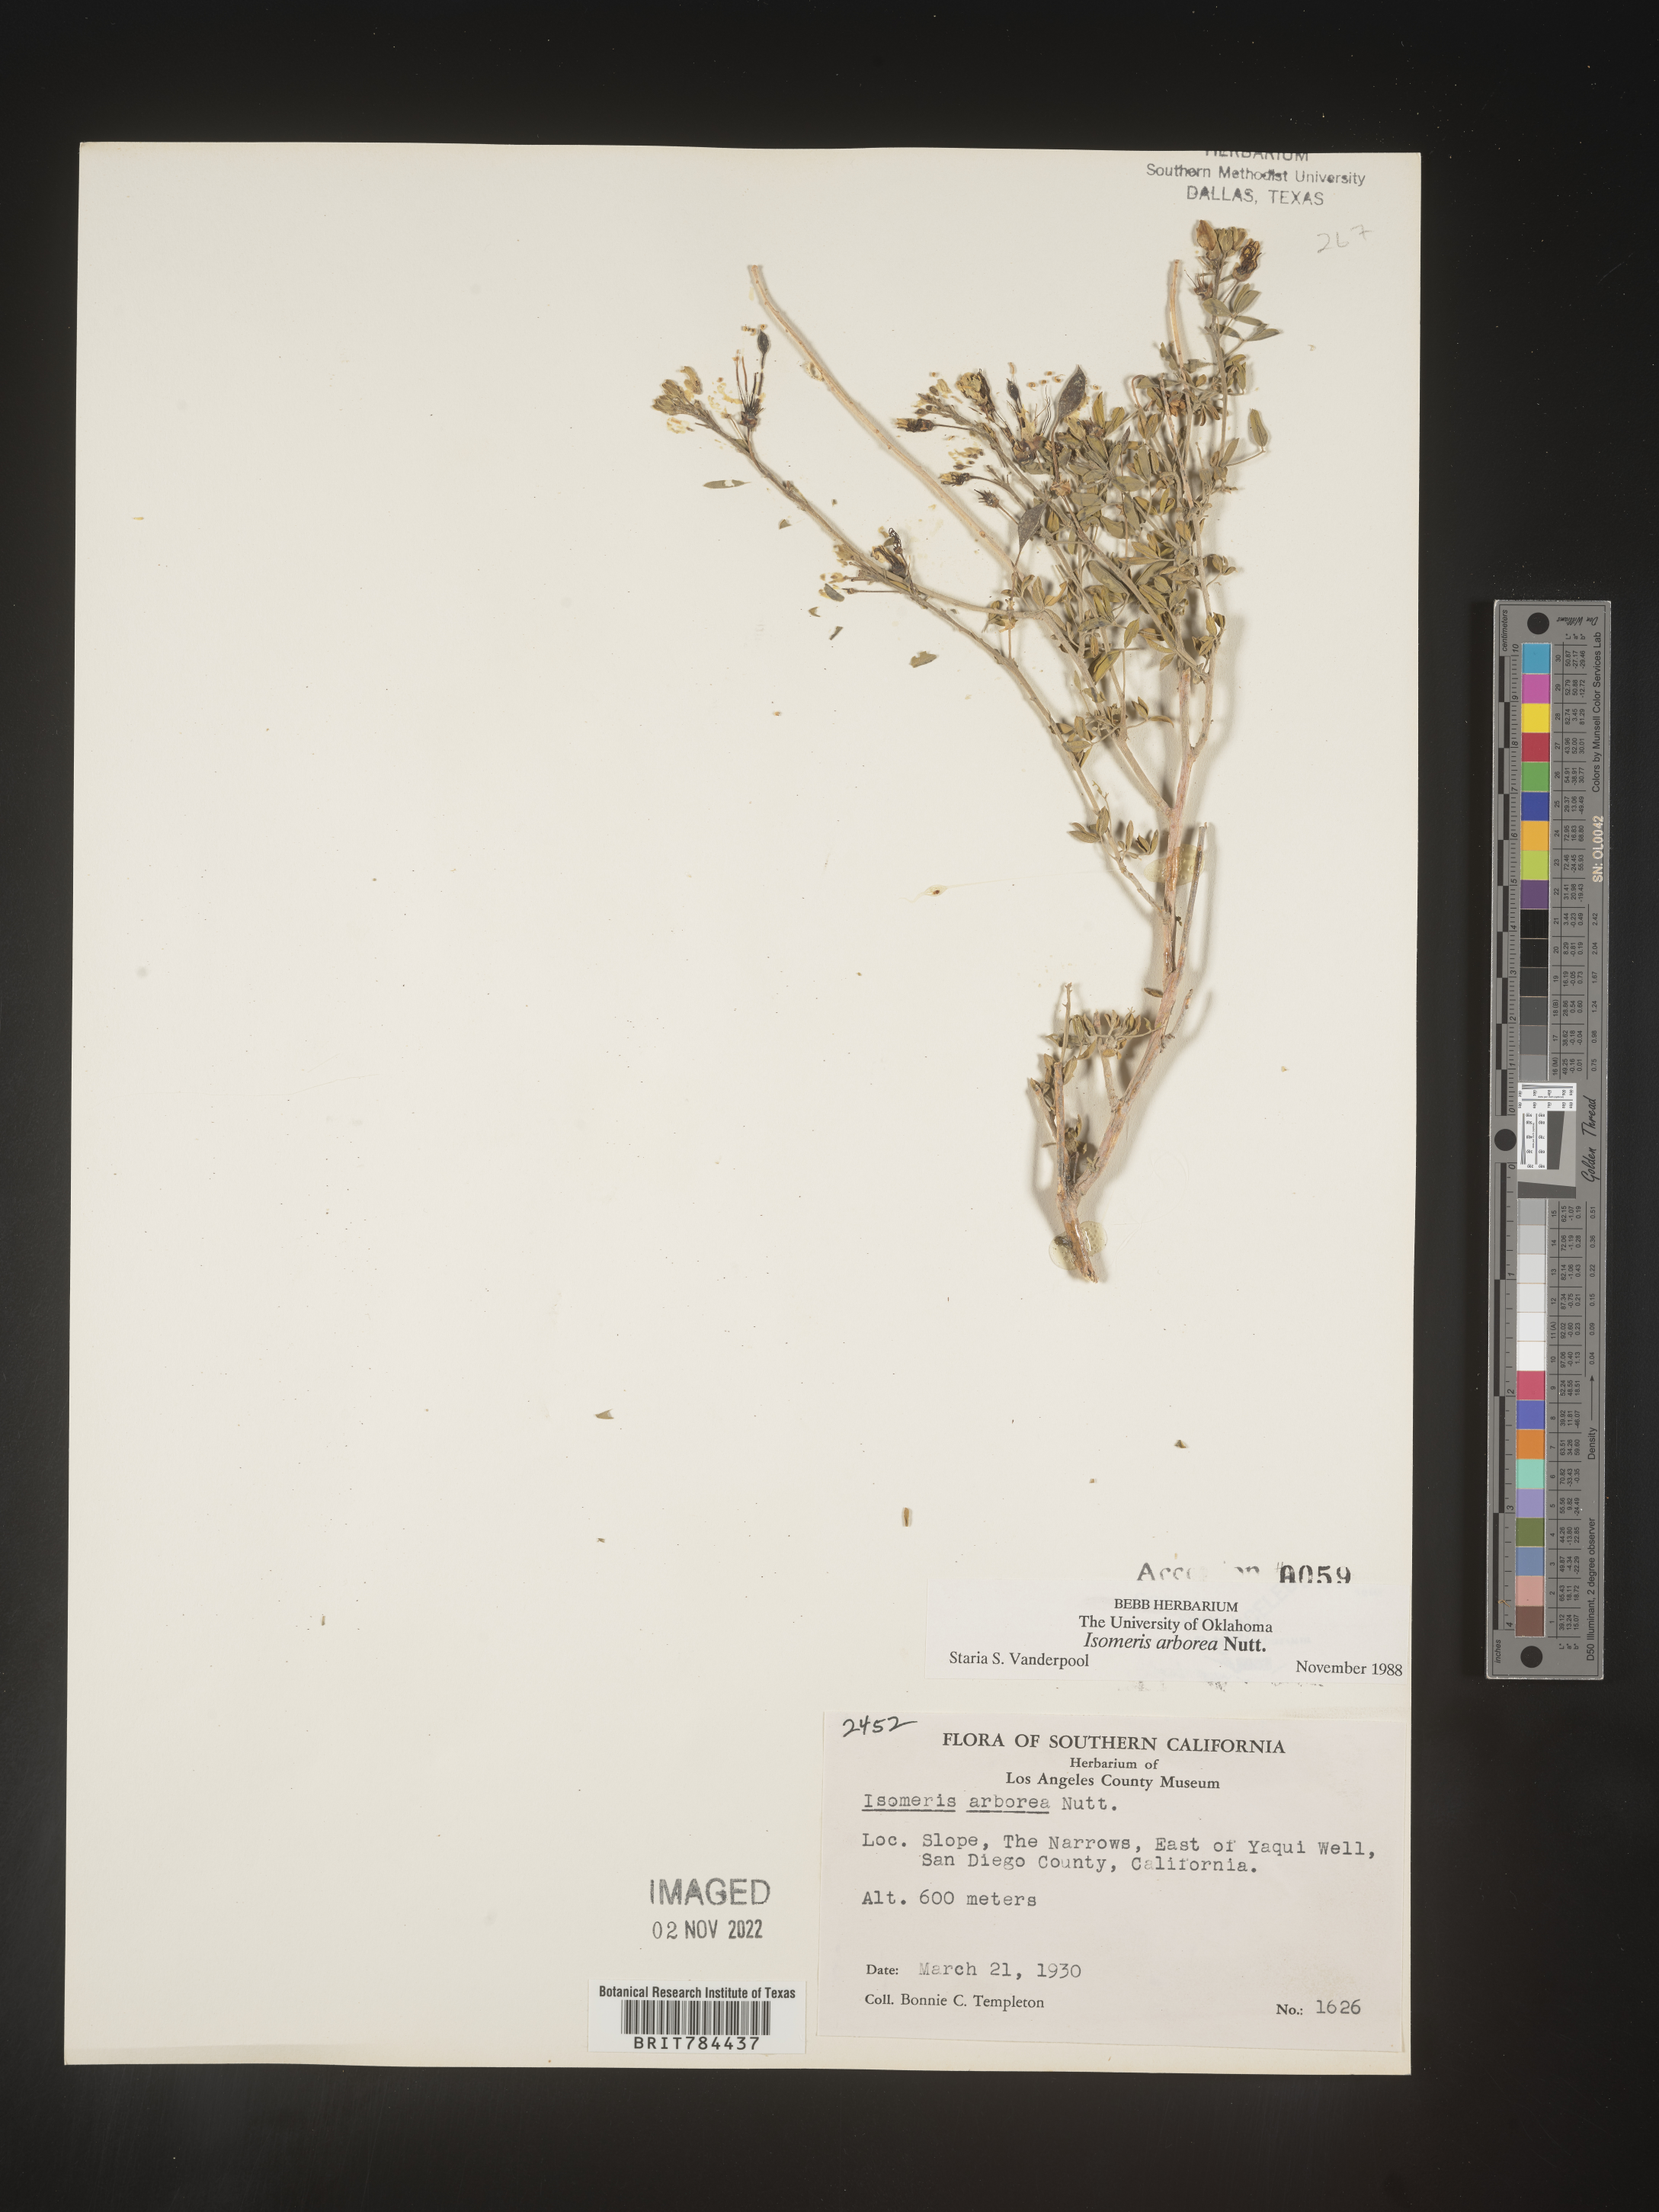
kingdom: Animalia
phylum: Arthropoda
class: Insecta
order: Hymenoptera
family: Ichneumonidae
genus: Isomeris
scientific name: Isomeris
